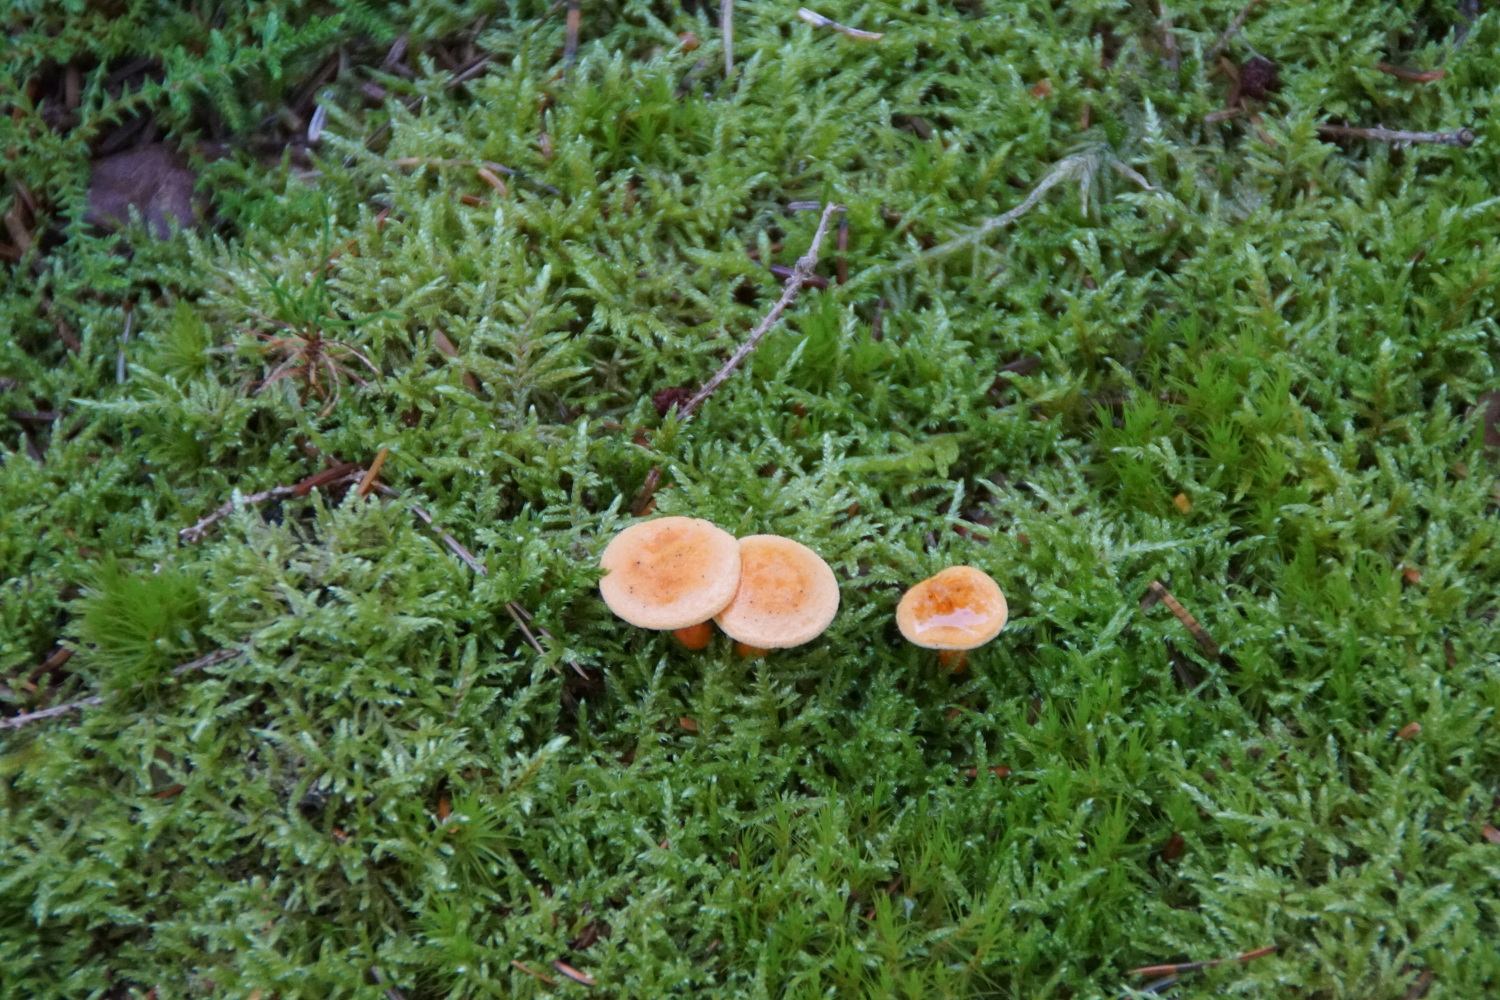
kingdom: Fungi
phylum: Basidiomycota
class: Agaricomycetes
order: Boletales
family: Hygrophoropsidaceae
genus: Hygrophoropsis
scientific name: Hygrophoropsis aurantiaca
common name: almindelig orangekantarel
